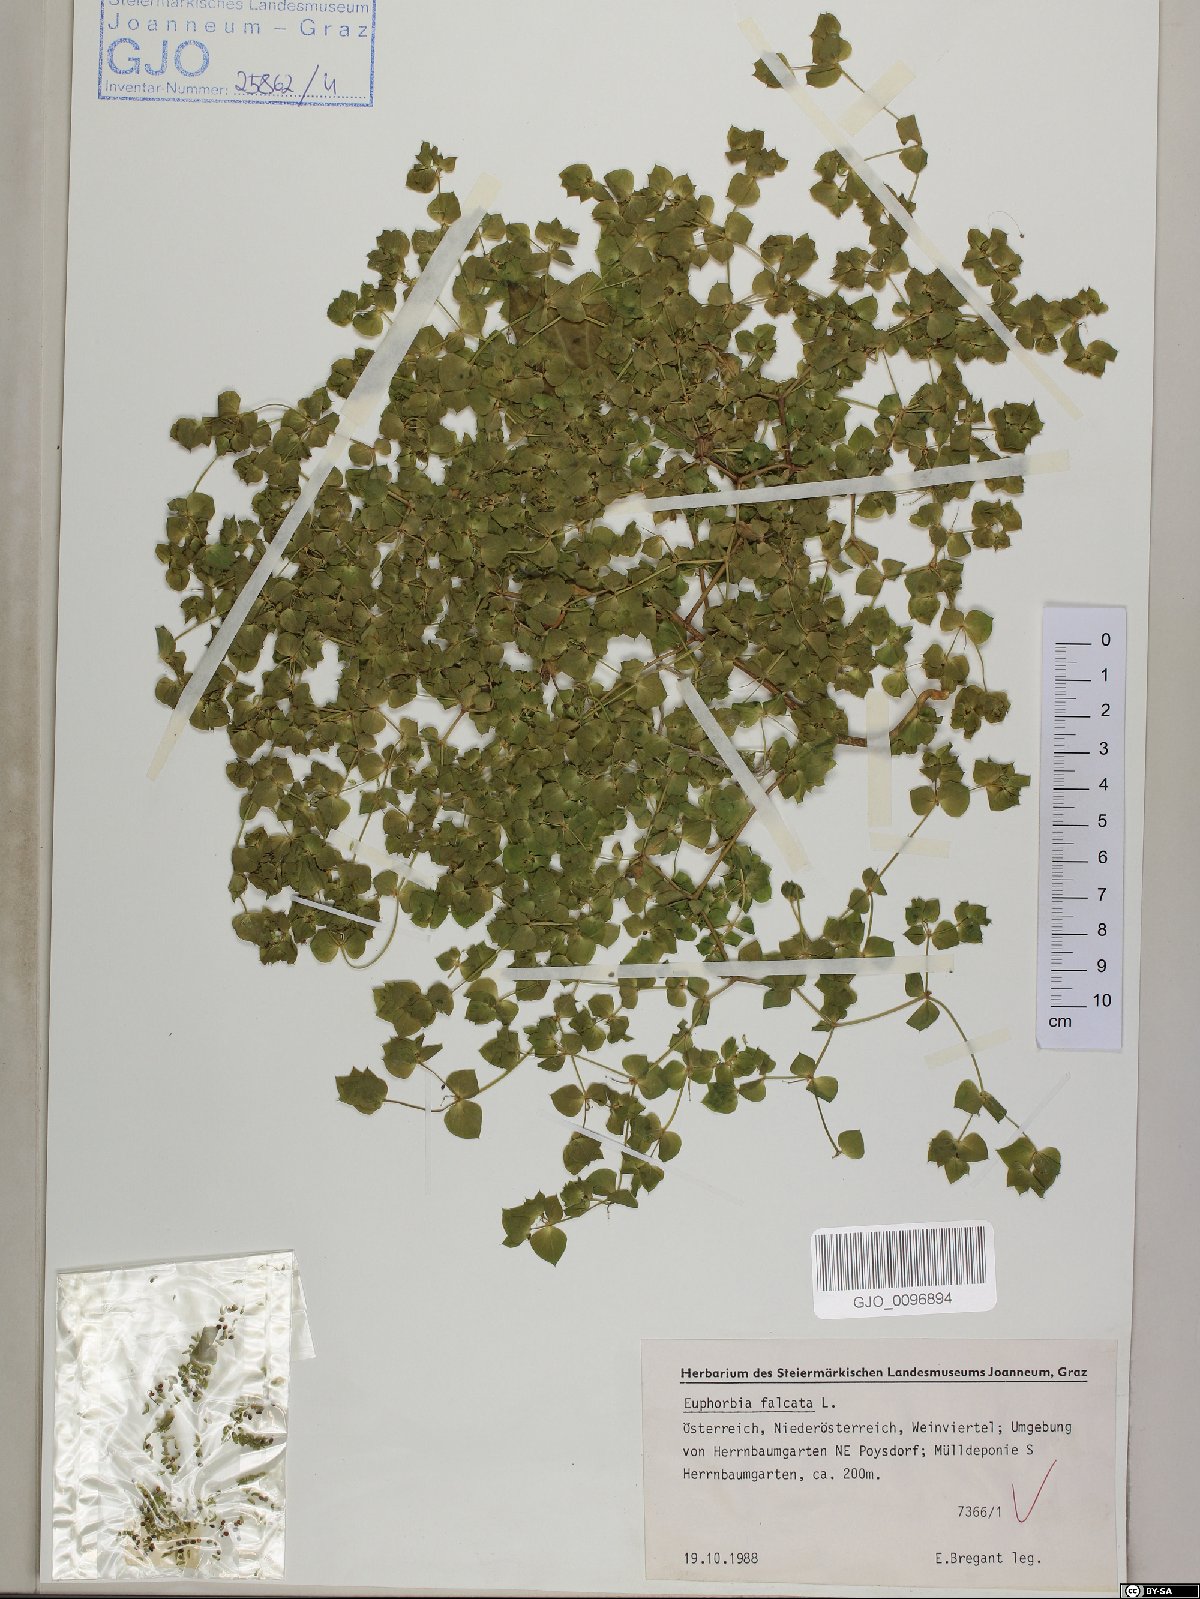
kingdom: Plantae
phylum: Tracheophyta
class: Magnoliopsida
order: Malpighiales
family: Euphorbiaceae
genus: Euphorbia
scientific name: Euphorbia falcata
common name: Sickle spurge
